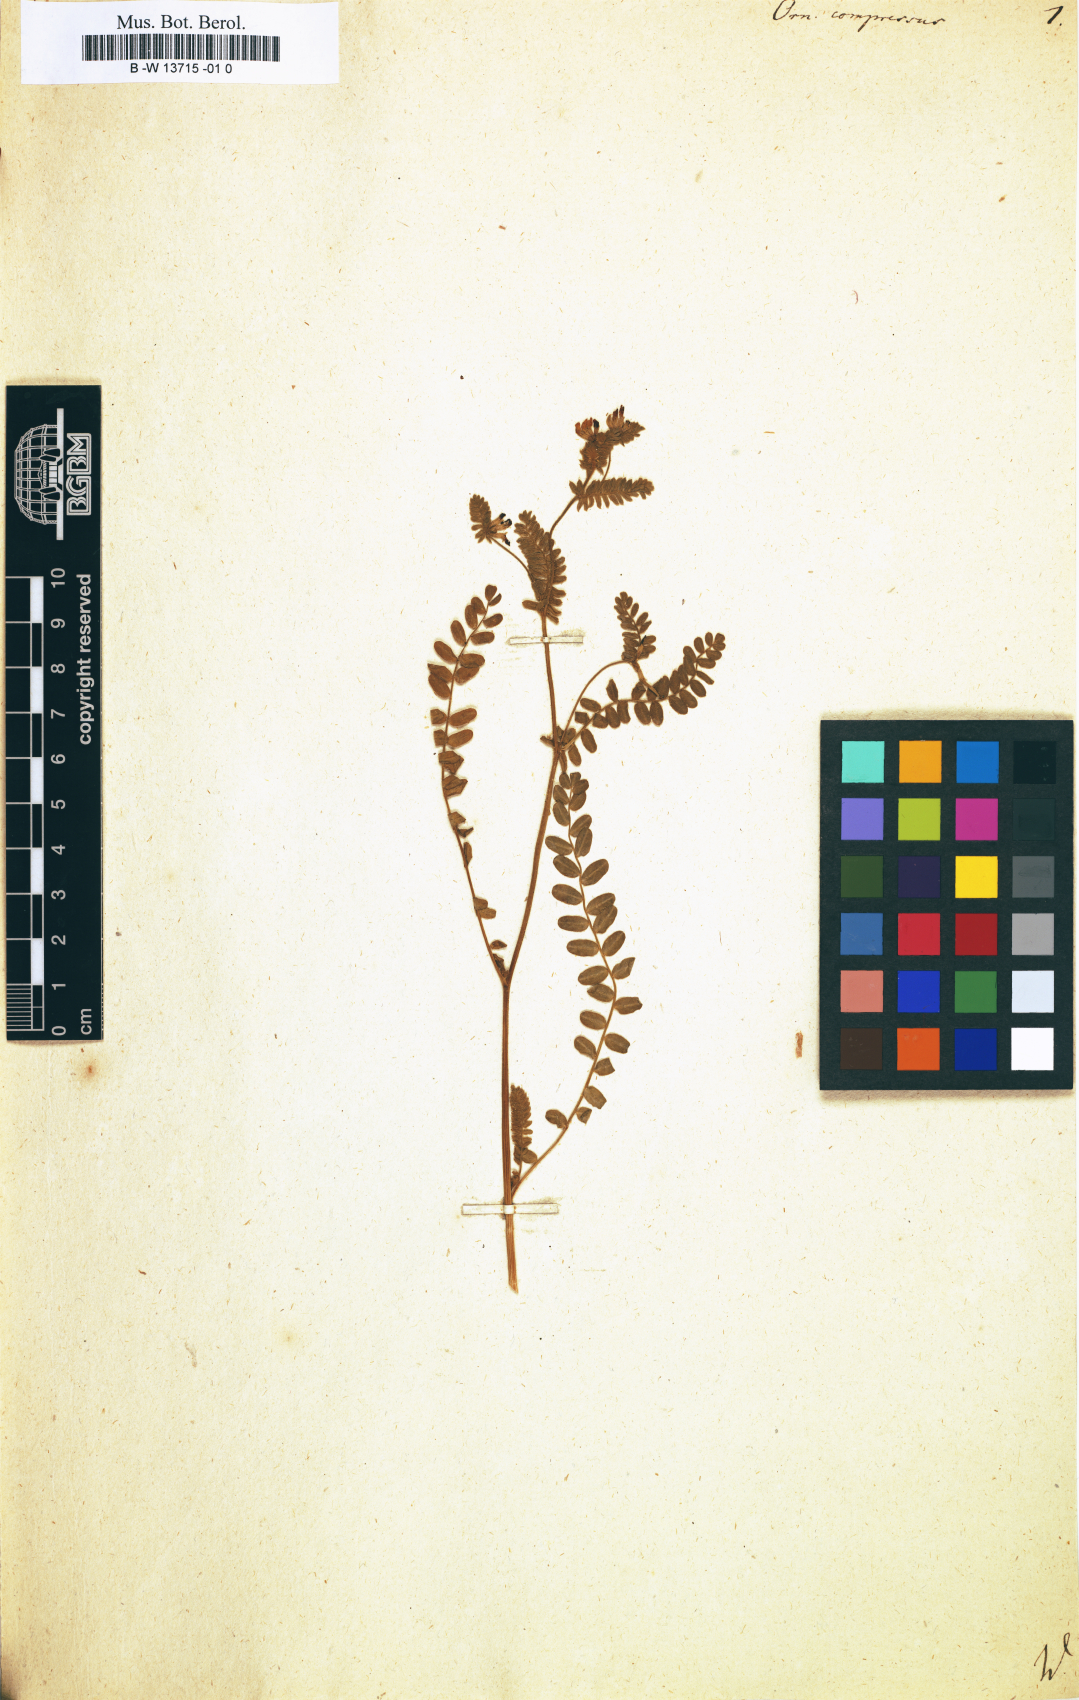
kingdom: Plantae
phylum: Tracheophyta
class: Magnoliopsida
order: Fabales
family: Fabaceae
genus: Ornithopus
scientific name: Ornithopus compressus
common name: Yellow serradella
